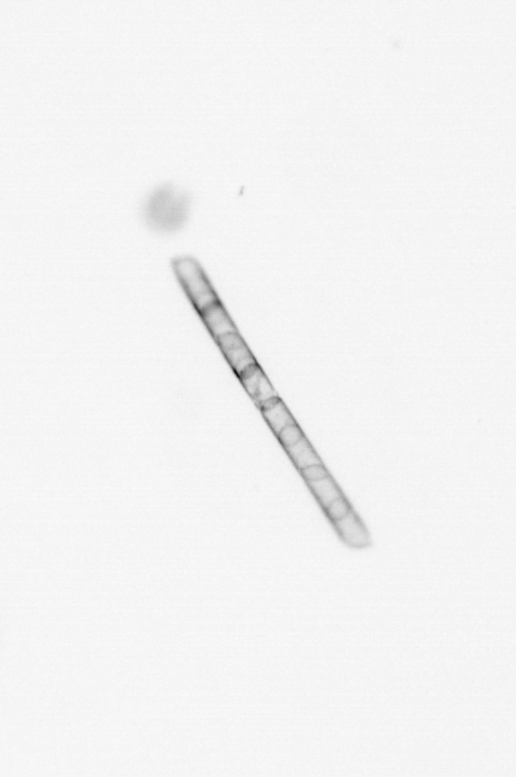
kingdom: Chromista
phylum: Ochrophyta
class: Bacillariophyceae
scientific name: Bacillariophyceae
